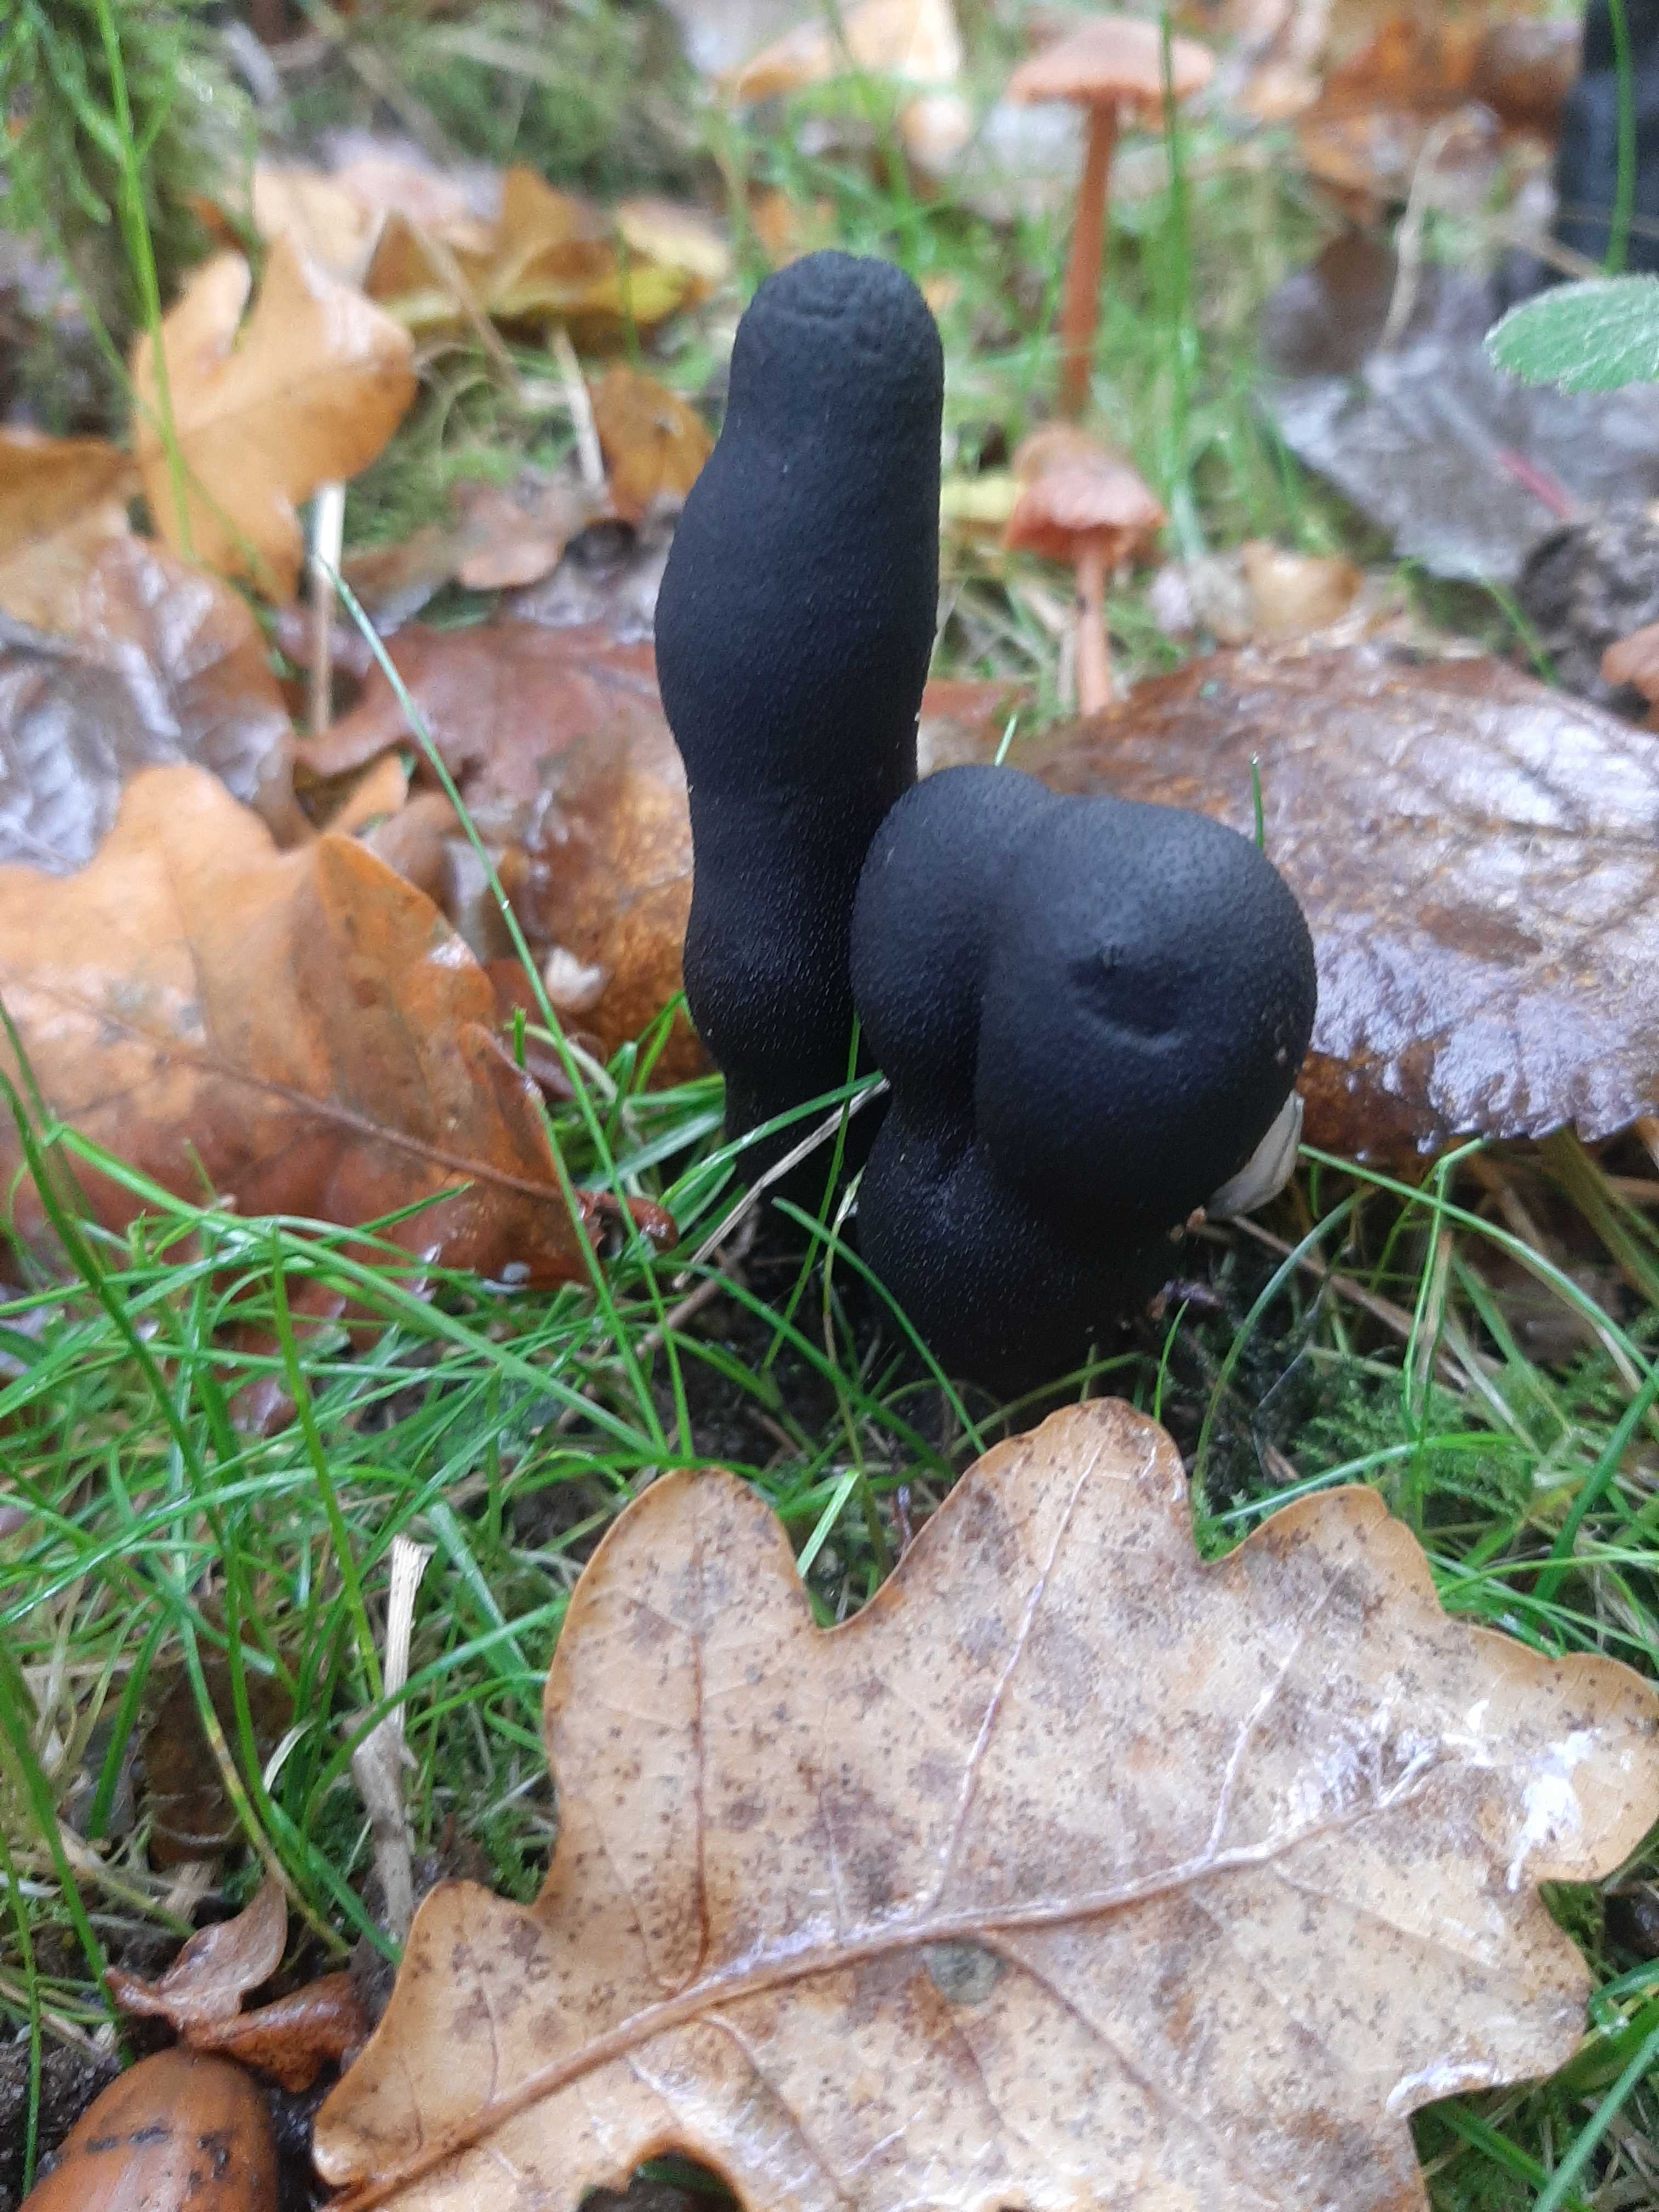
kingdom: Fungi
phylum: Ascomycota
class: Sordariomycetes
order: Xylariales
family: Xylariaceae
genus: Xylaria
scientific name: Xylaria polymorpha
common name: kølle-stødsvamp
